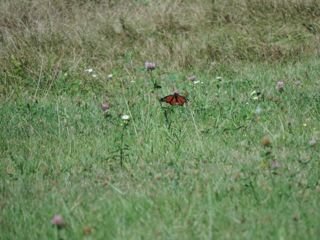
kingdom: Animalia
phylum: Arthropoda
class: Insecta
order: Lepidoptera
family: Nymphalidae
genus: Danaus
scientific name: Danaus plexippus
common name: Monarch
